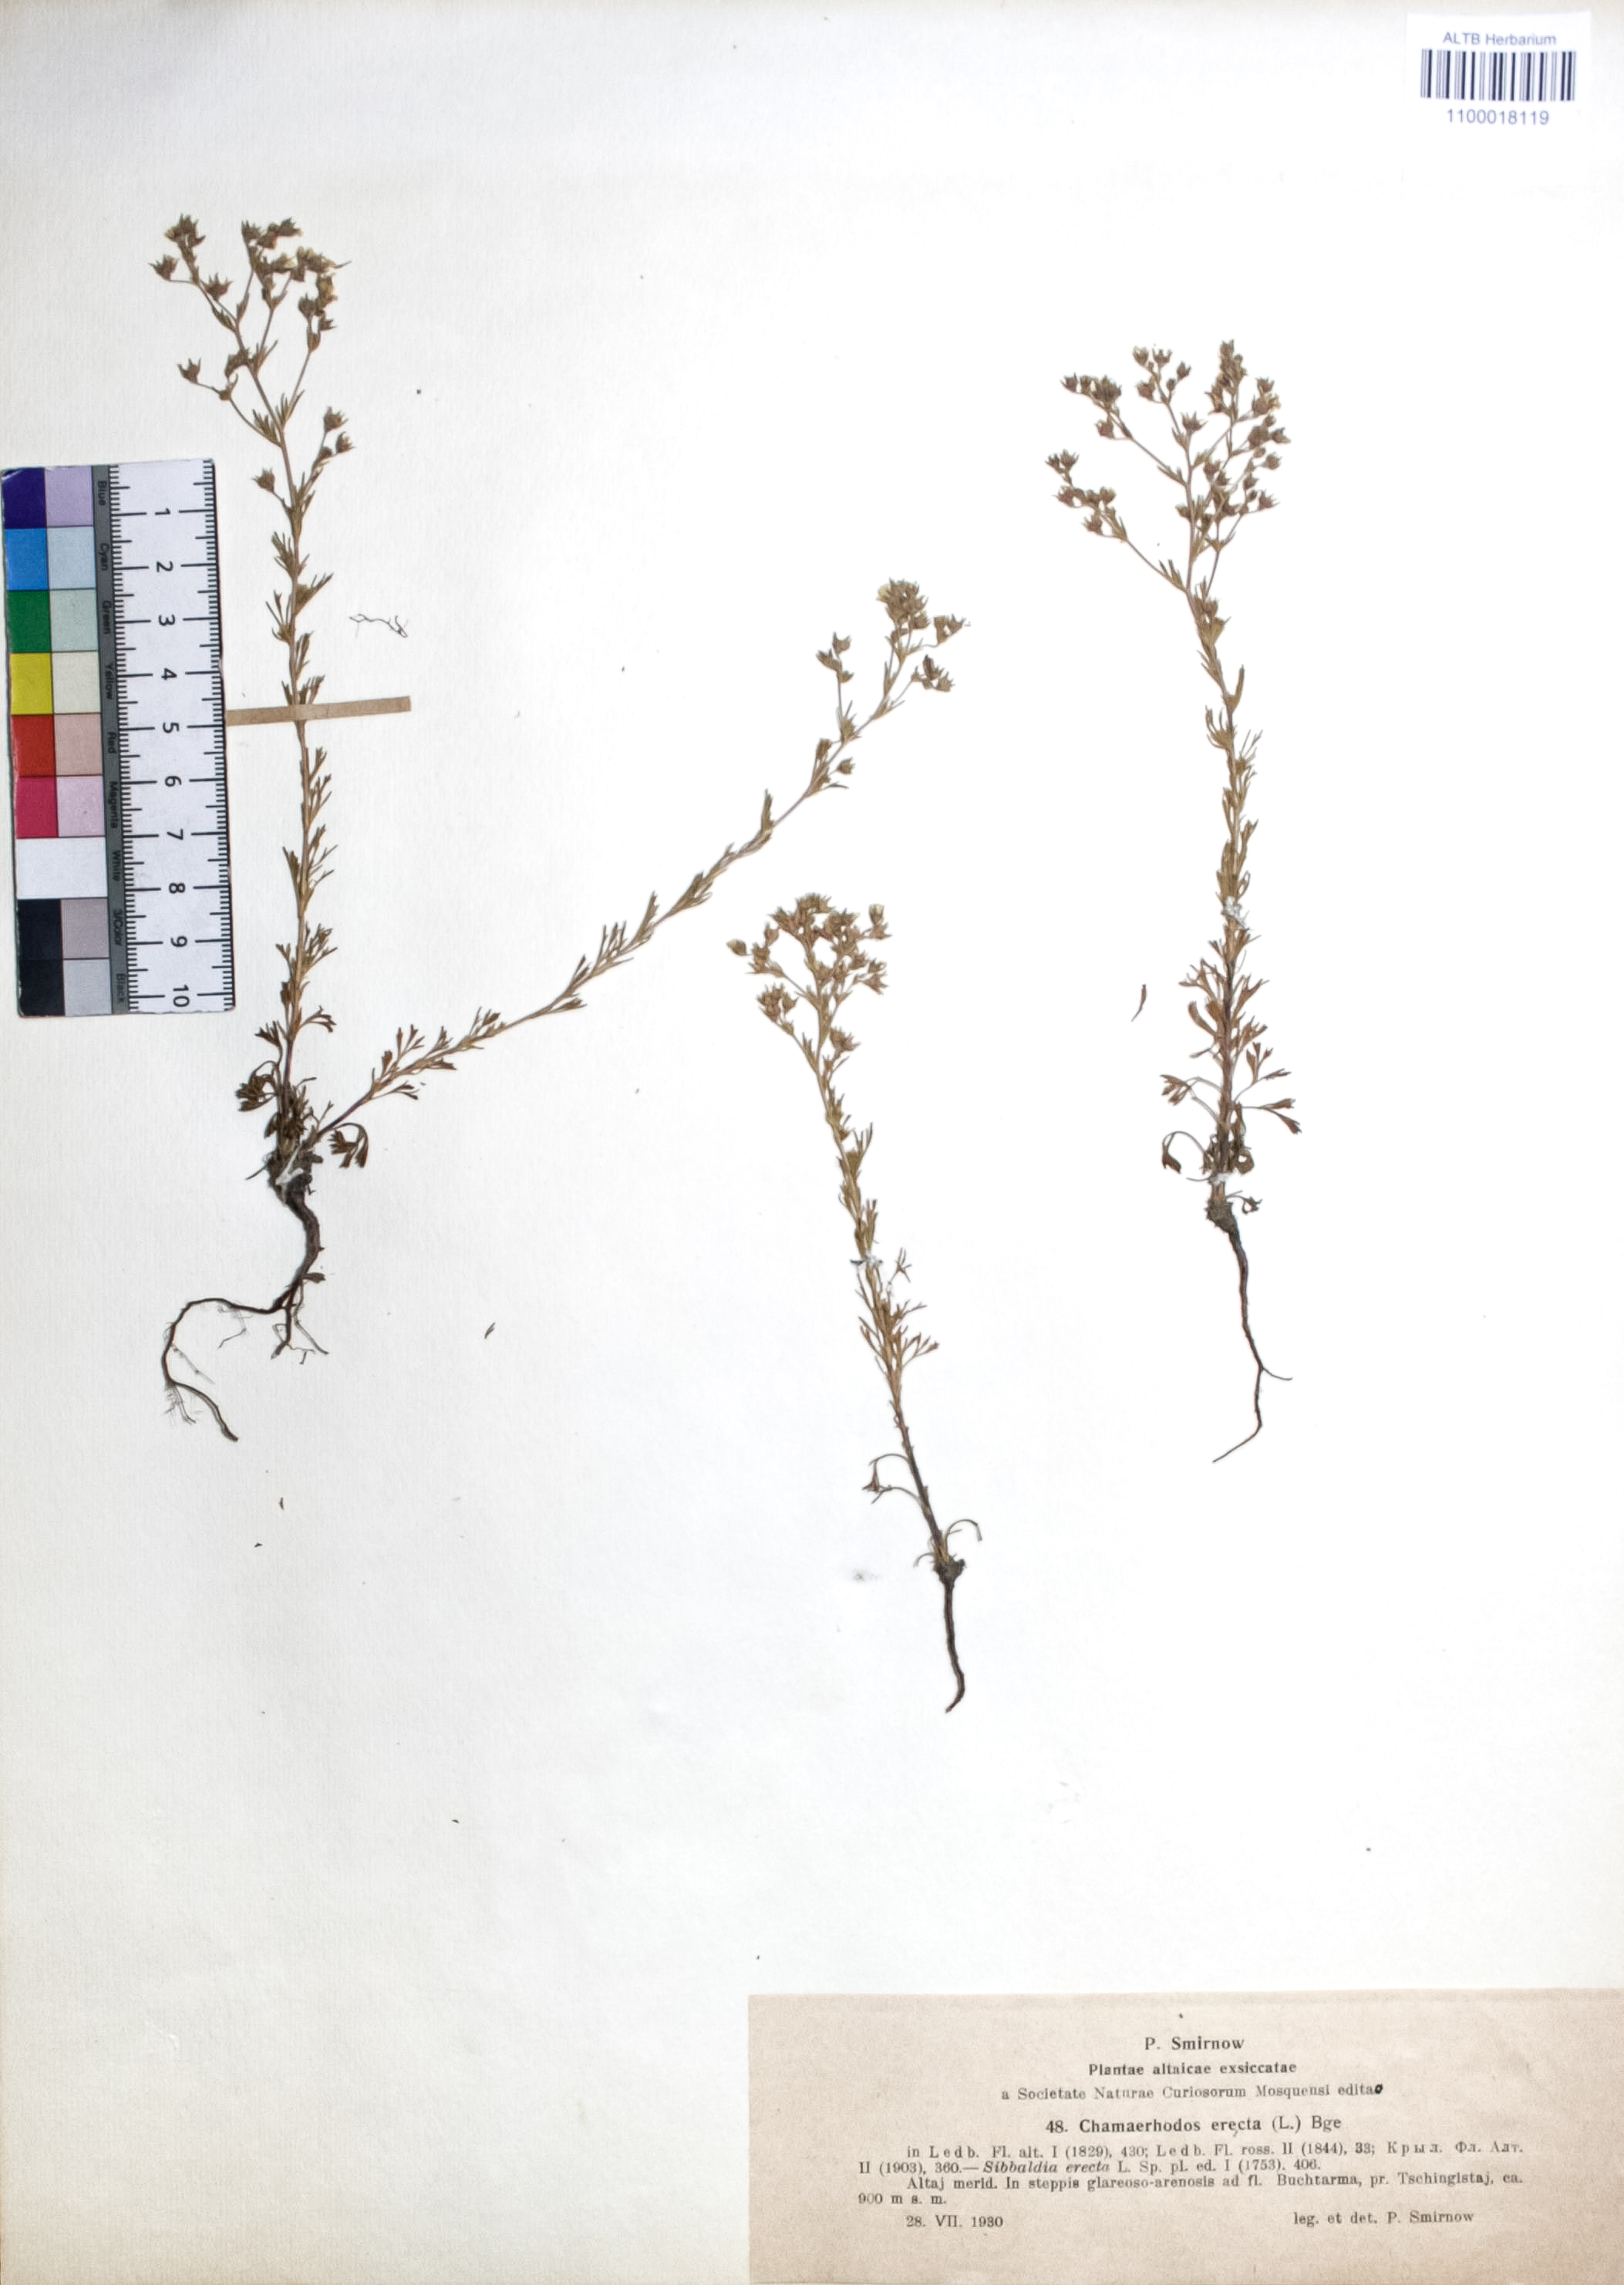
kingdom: Plantae
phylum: Tracheophyta
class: Magnoliopsida
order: Rosales
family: Rosaceae
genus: Chamaerhodos
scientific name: Chamaerhodos erecta
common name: American chamaerhodos
